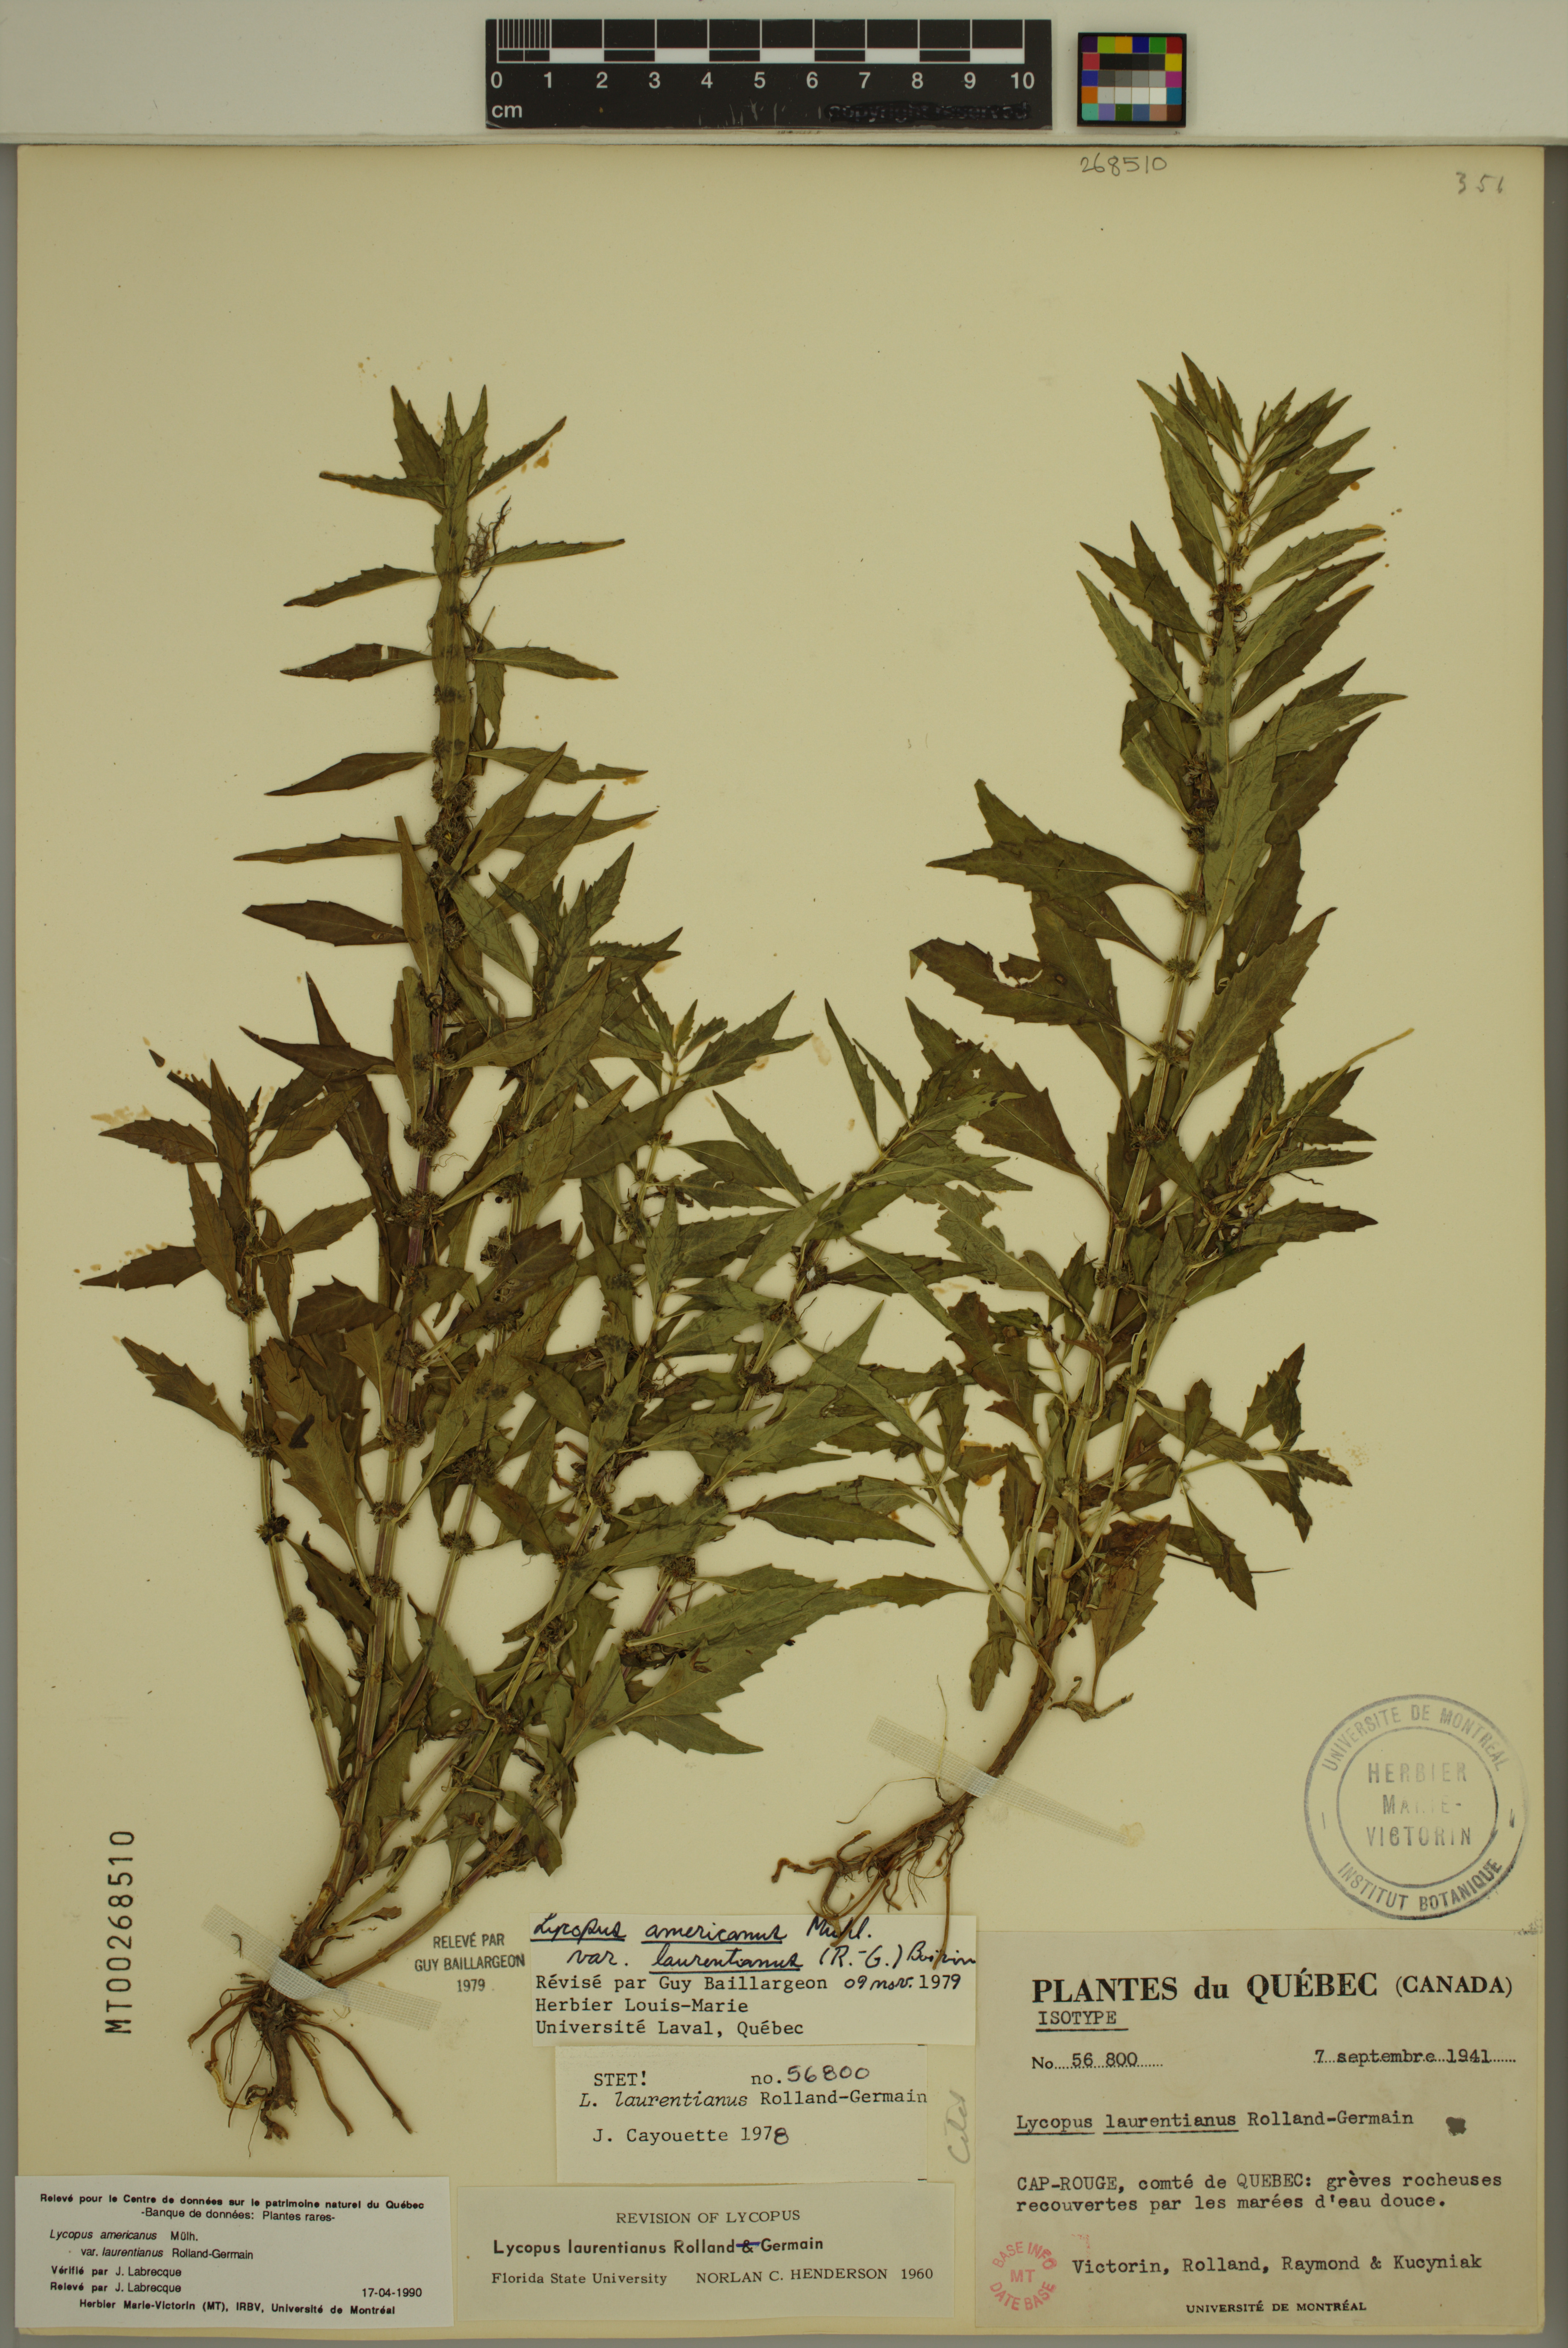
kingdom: Plantae
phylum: Tracheophyta
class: Magnoliopsida
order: Lamiales
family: Lamiaceae
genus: Lycopus
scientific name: Lycopus americanus
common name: American bugleweed
